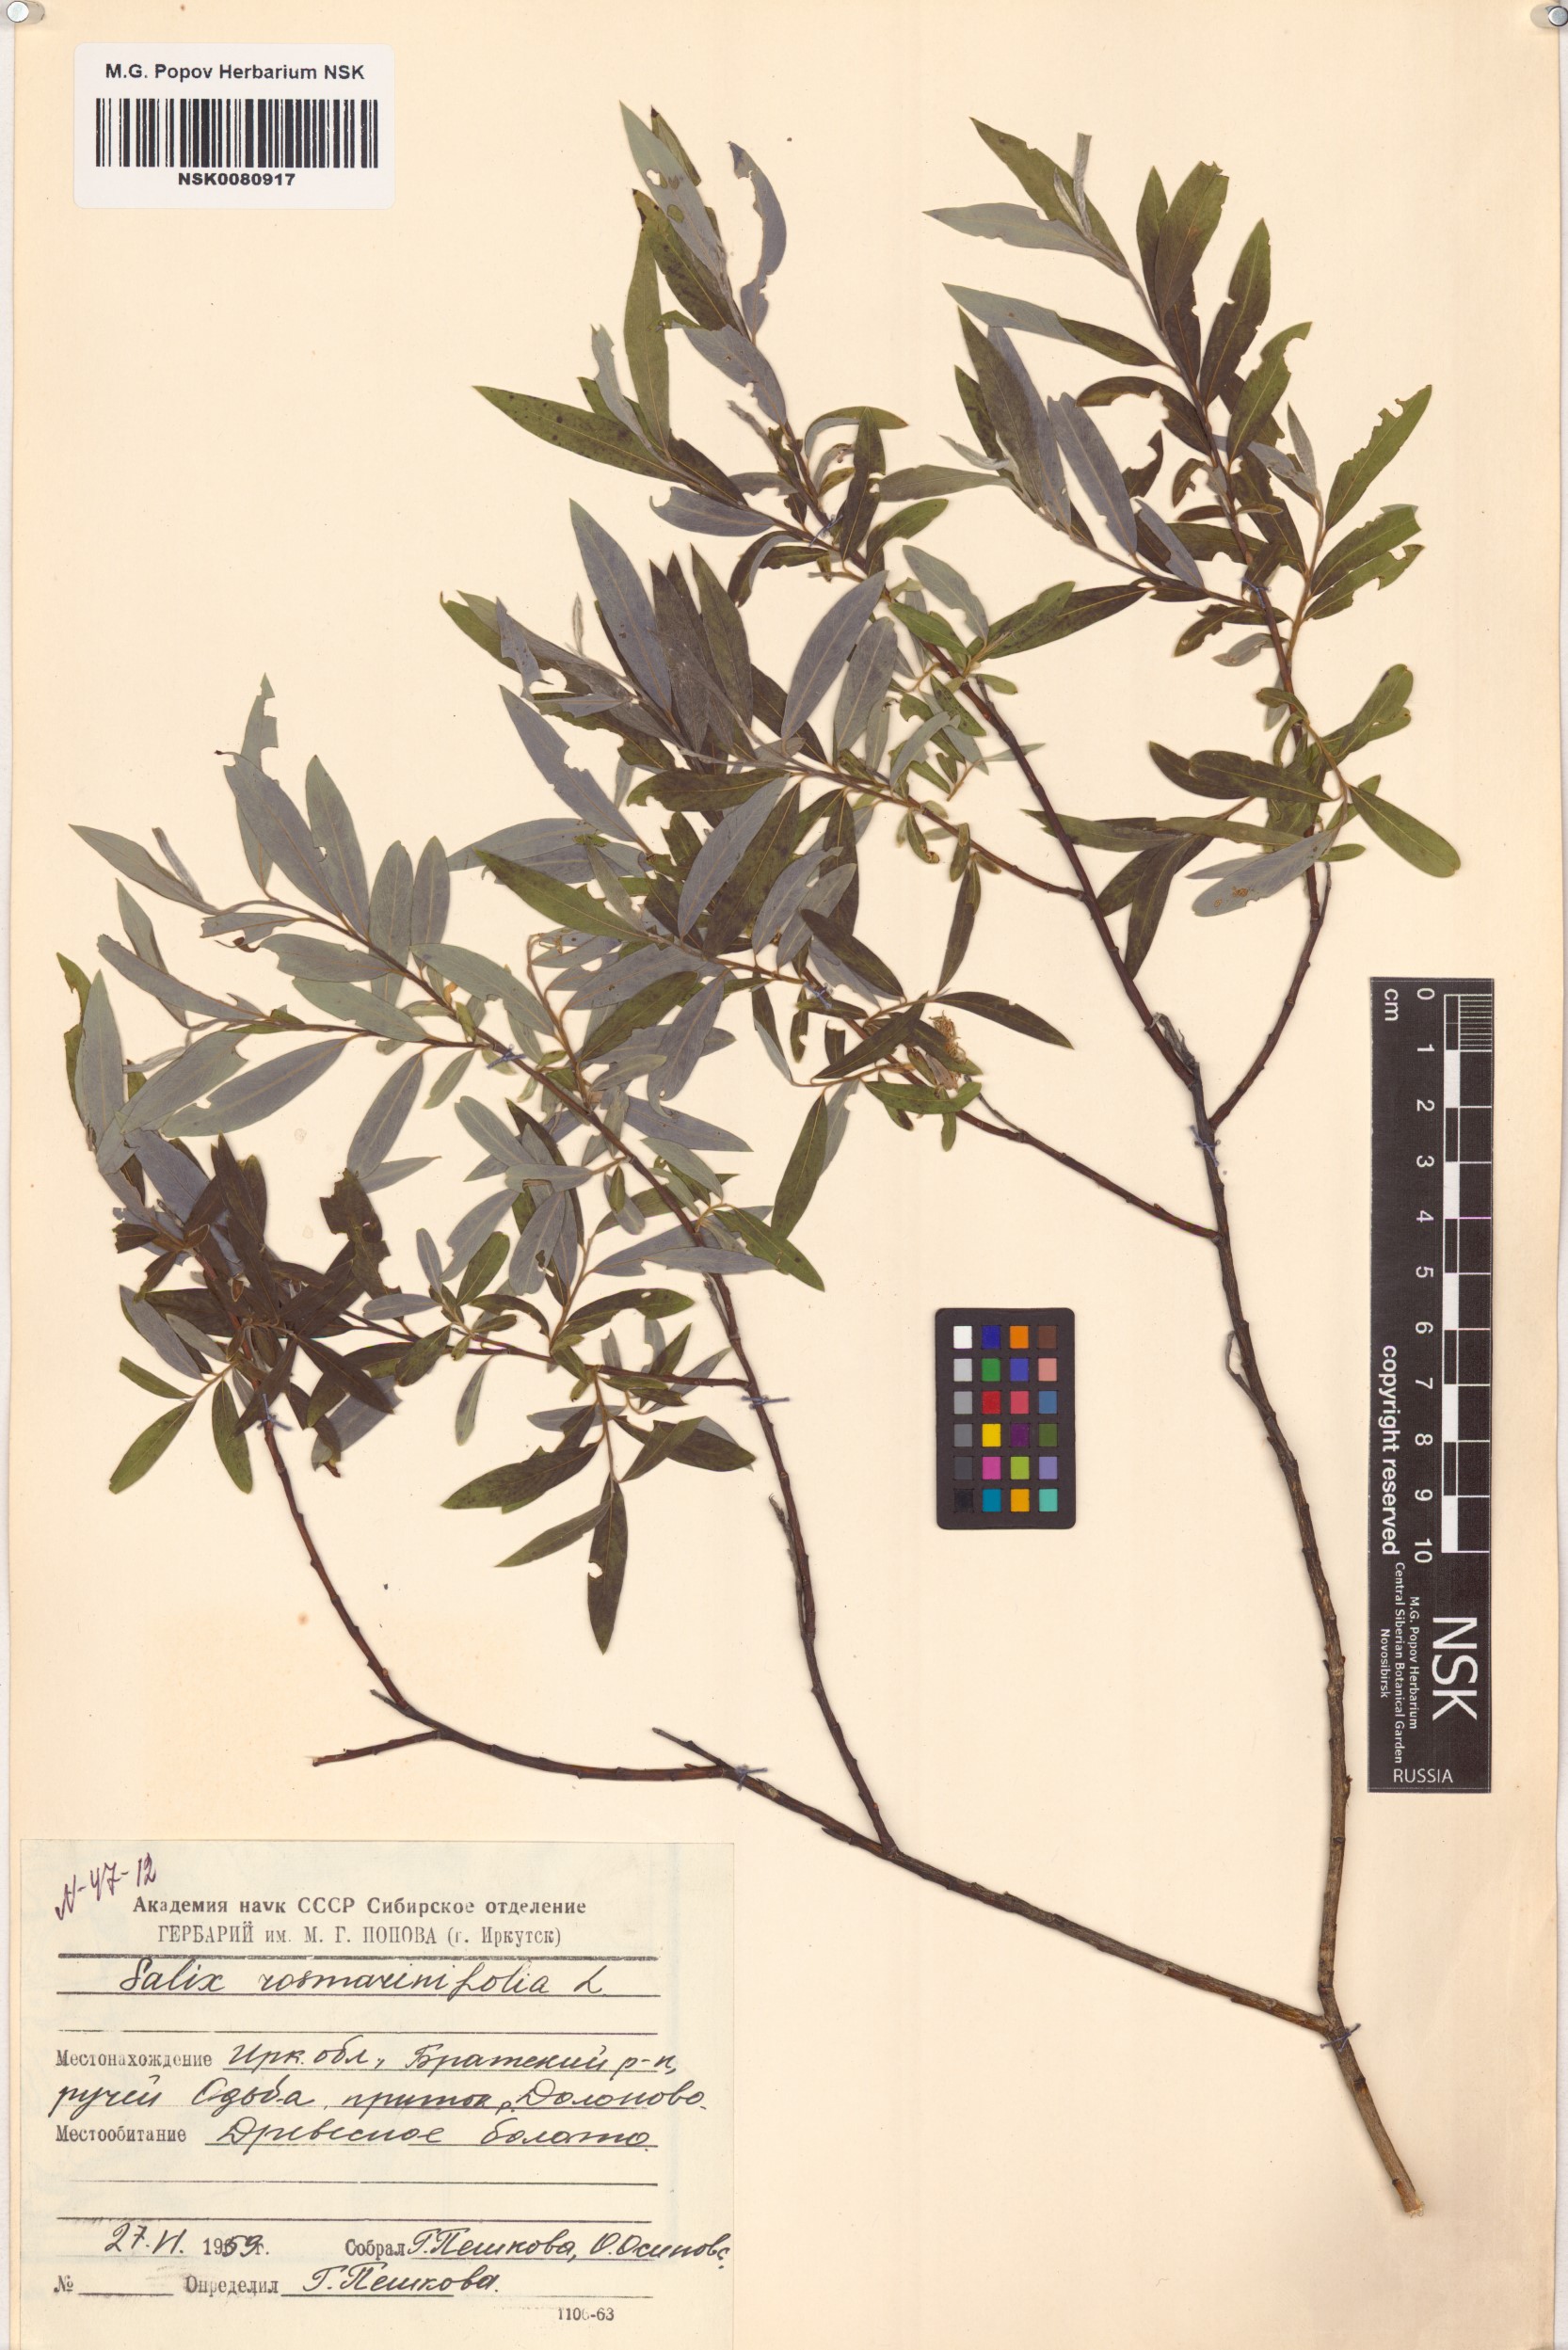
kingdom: Plantae
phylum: Tracheophyta
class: Magnoliopsida
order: Malpighiales
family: Salicaceae
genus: Salix
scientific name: Salix rosmarinifolia
